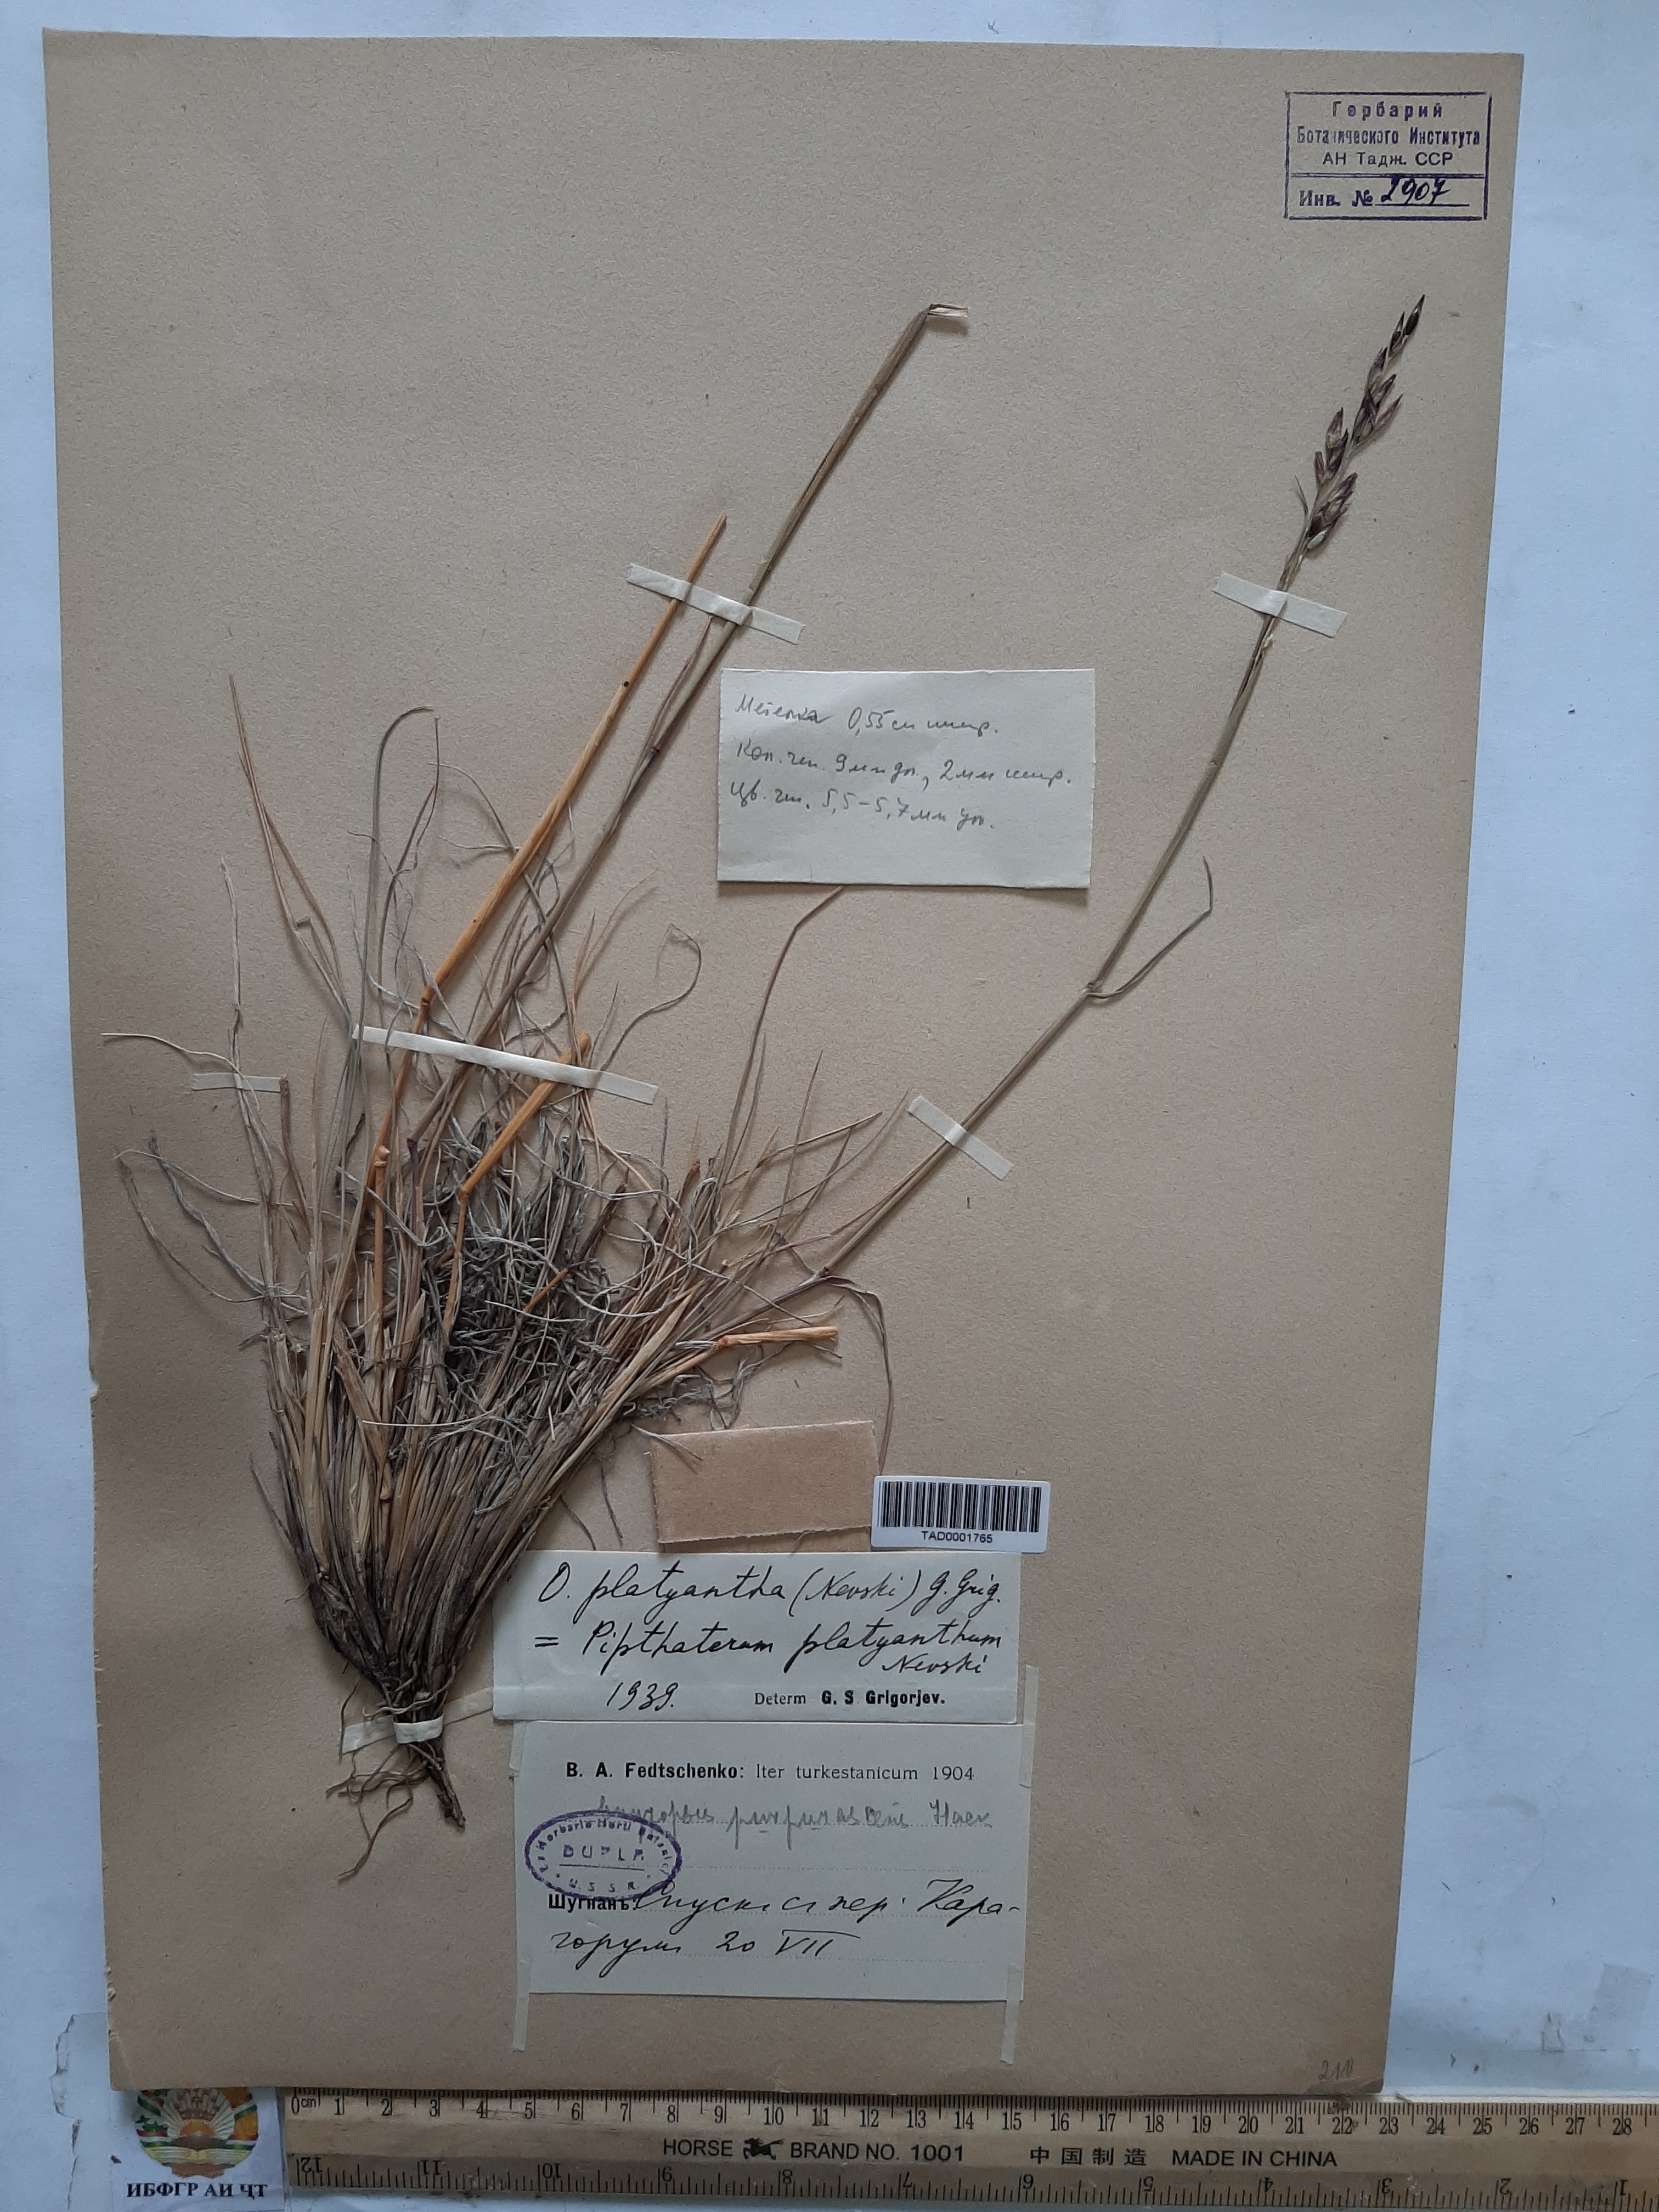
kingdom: Plantae
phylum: Tracheophyta
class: Liliopsida
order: Poales
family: Poaceae
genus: Piptatherum
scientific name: Piptatherum platyanthum
